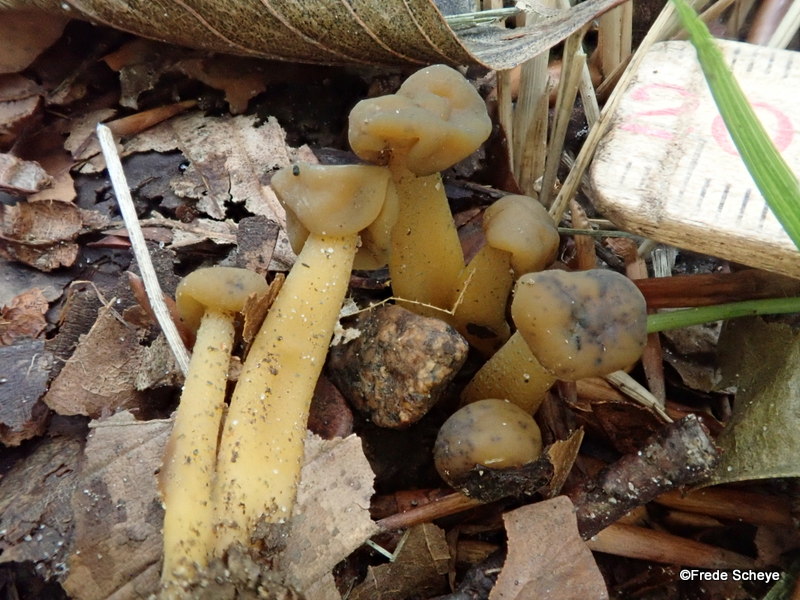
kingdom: Fungi
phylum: Ascomycota
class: Leotiomycetes
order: Leotiales
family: Leotiaceae
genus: Leotia
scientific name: Leotia lubrica
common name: ravsvamp
